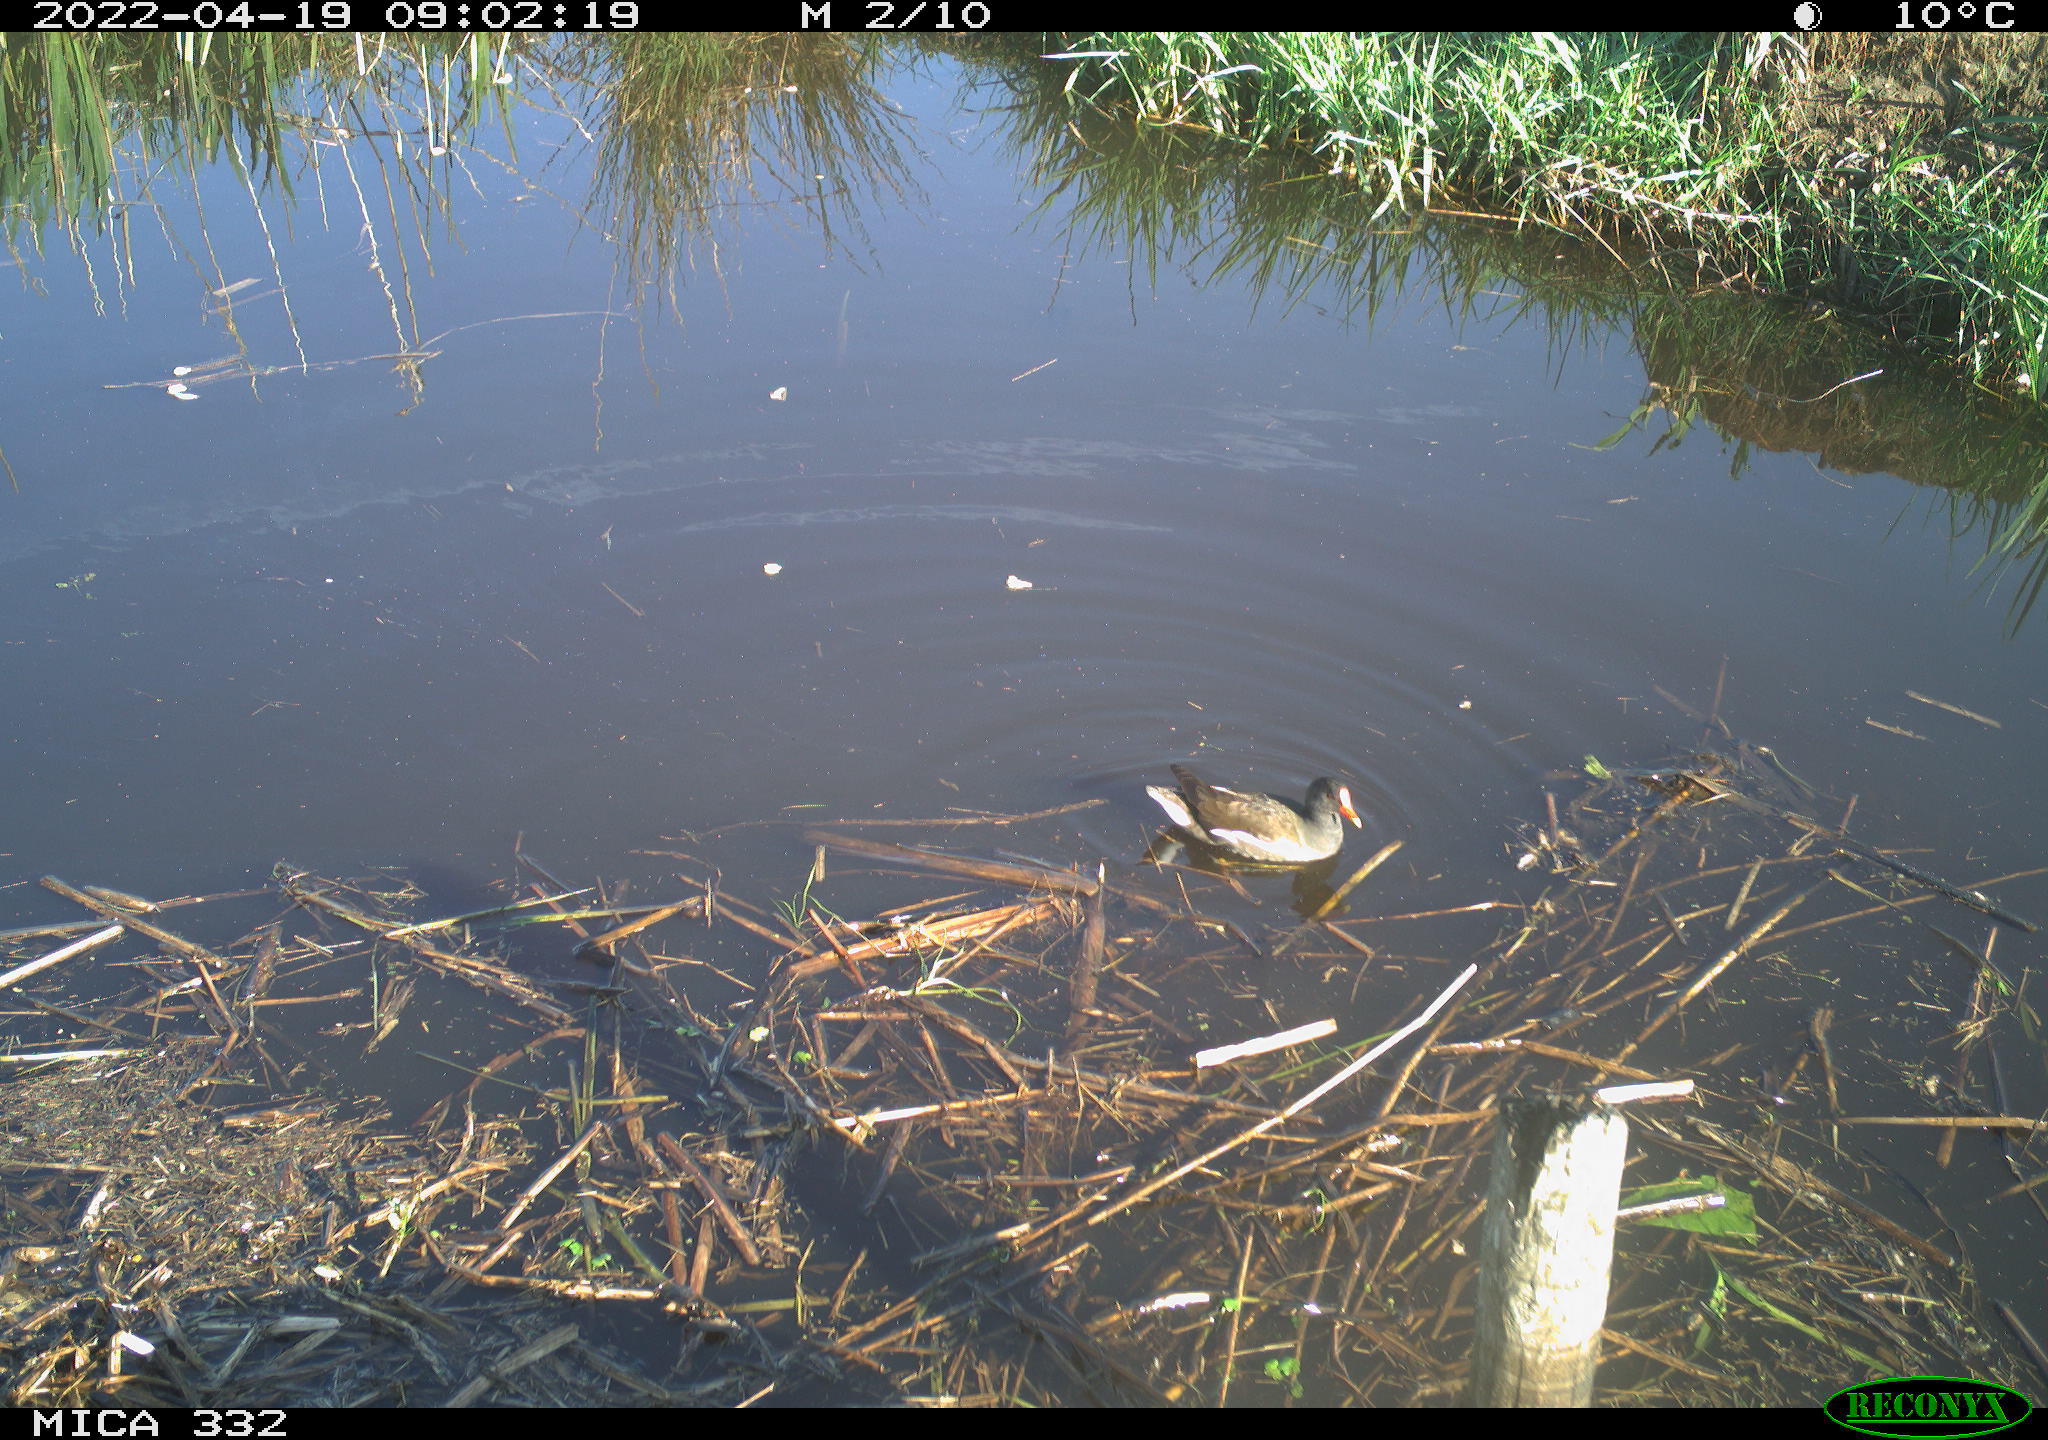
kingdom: Animalia
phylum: Chordata
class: Aves
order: Gruiformes
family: Rallidae
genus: Gallinula
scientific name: Gallinula chloropus
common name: Common moorhen
